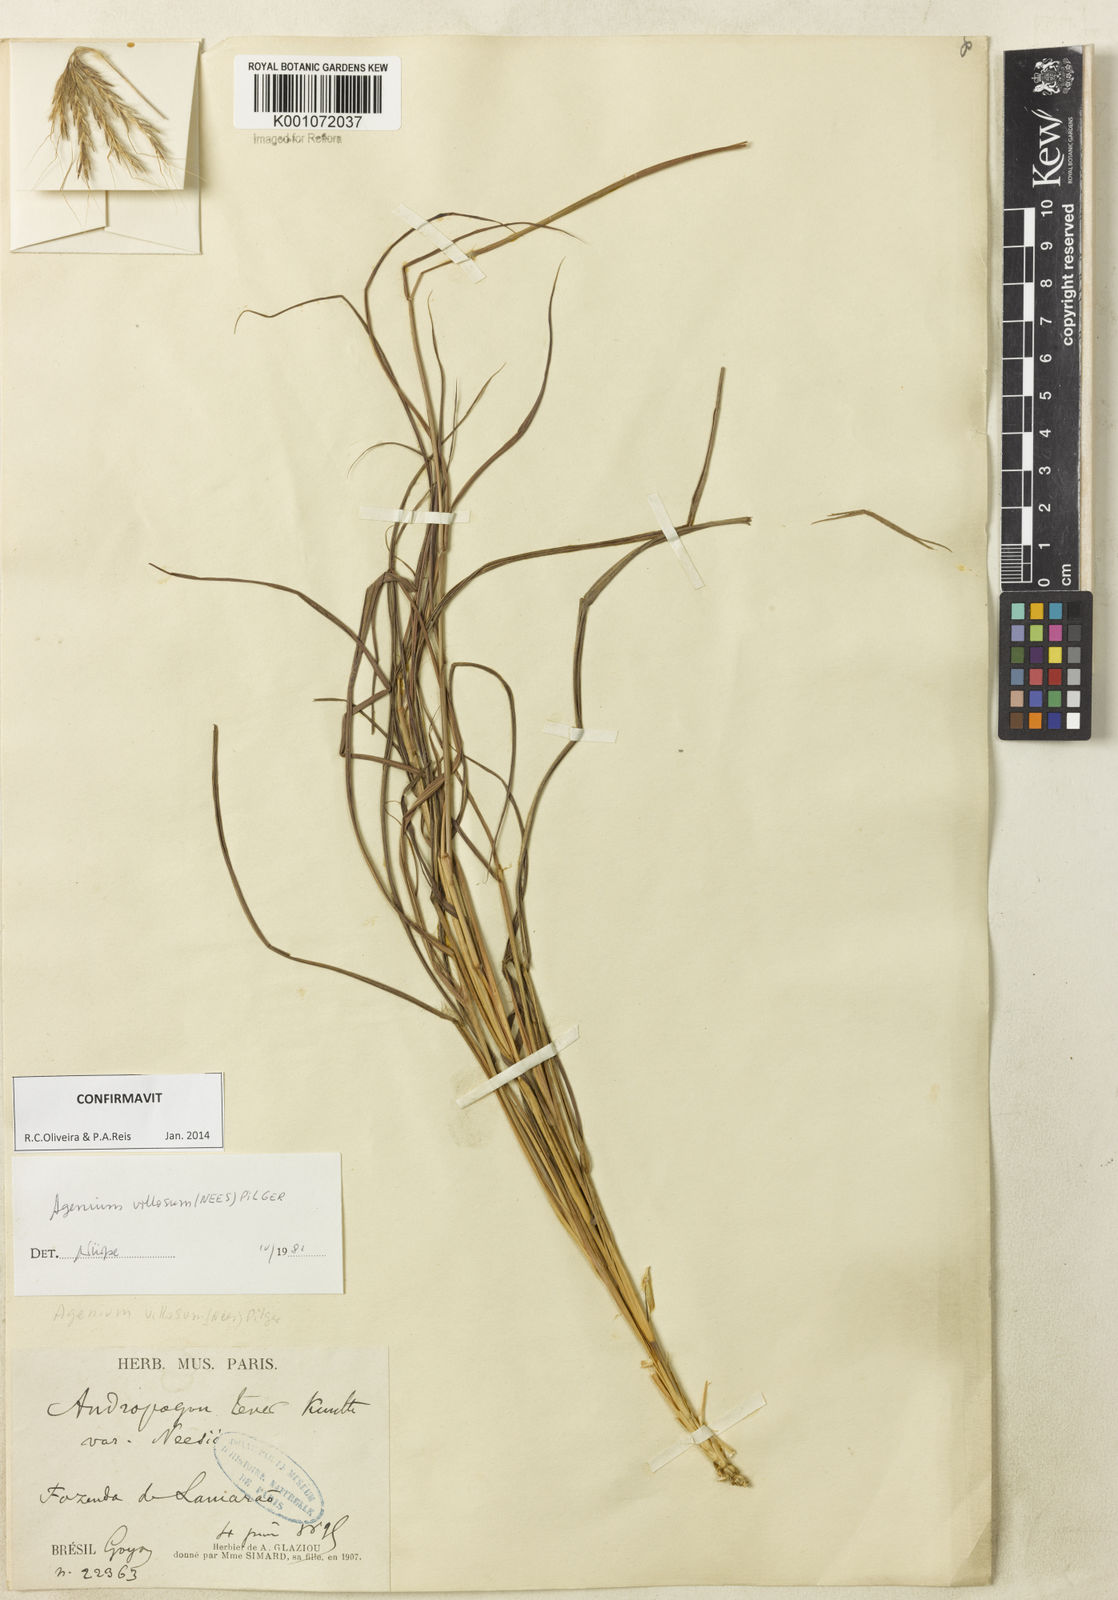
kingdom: Plantae
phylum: Tracheophyta
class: Liliopsida
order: Poales
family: Poaceae
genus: Agenium
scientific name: Agenium villosum
